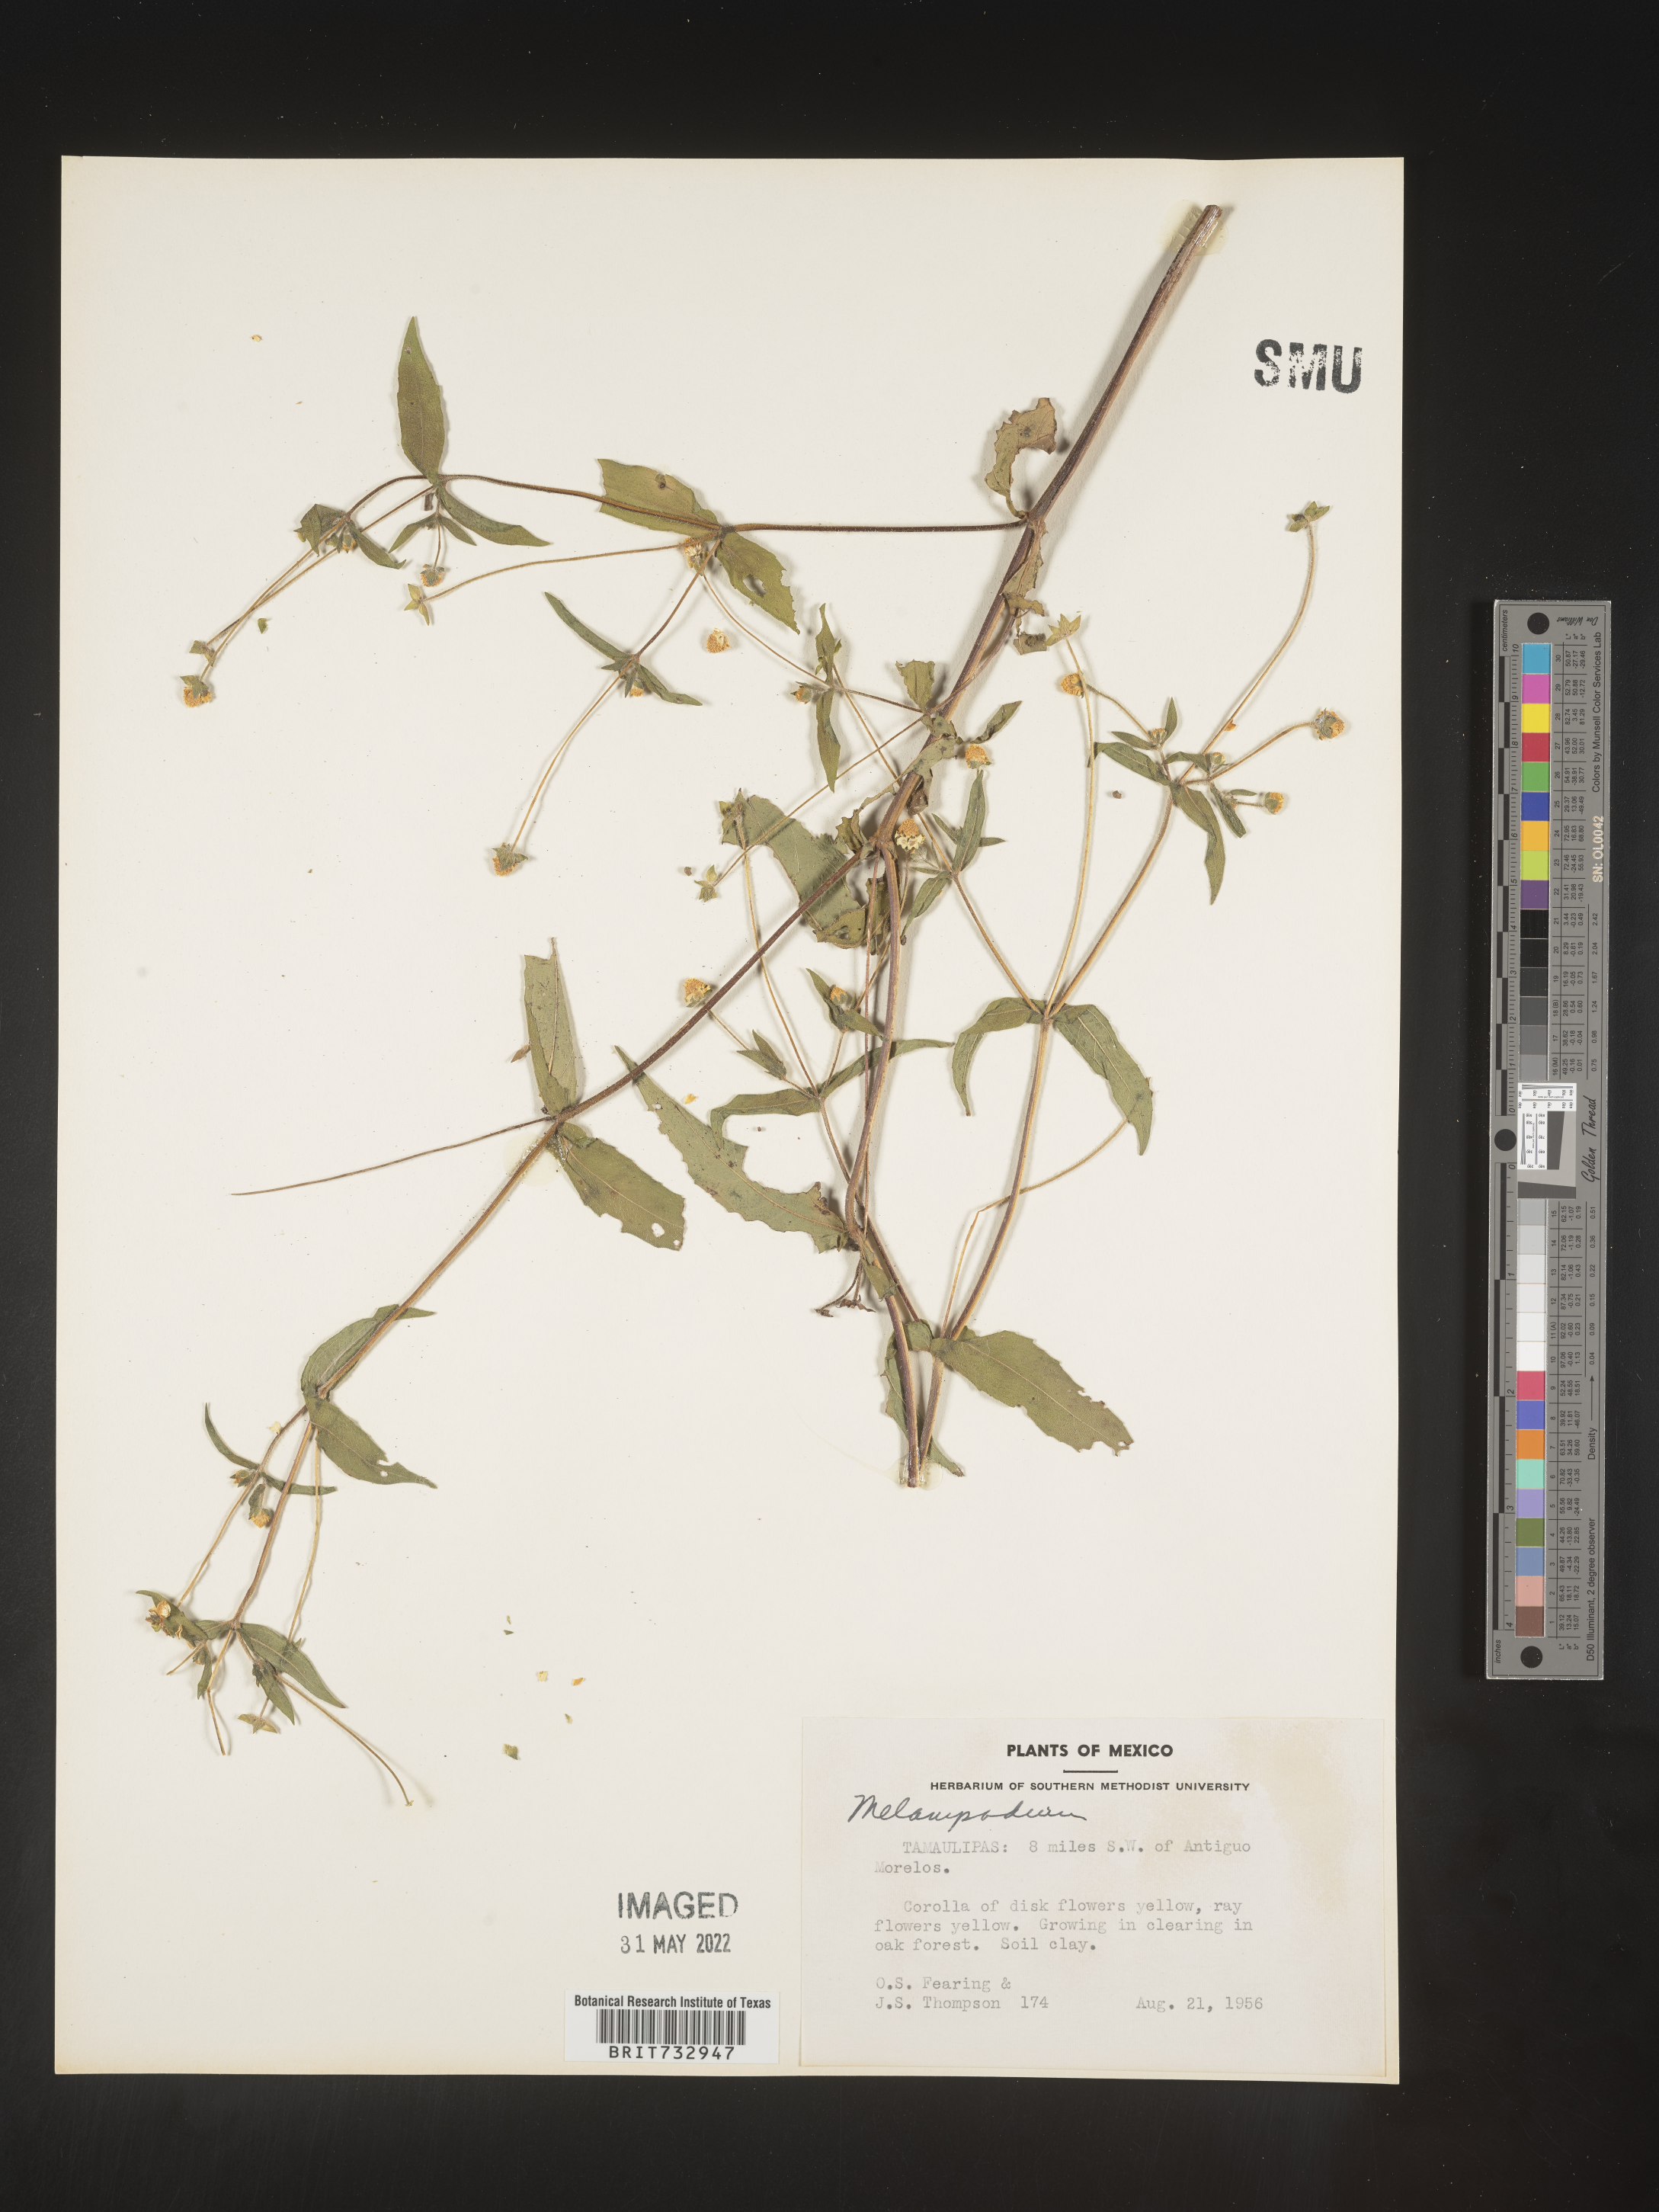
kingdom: Plantae
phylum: Tracheophyta
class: Magnoliopsida
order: Asterales
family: Asteraceae
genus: Melampodium
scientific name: Melampodium
